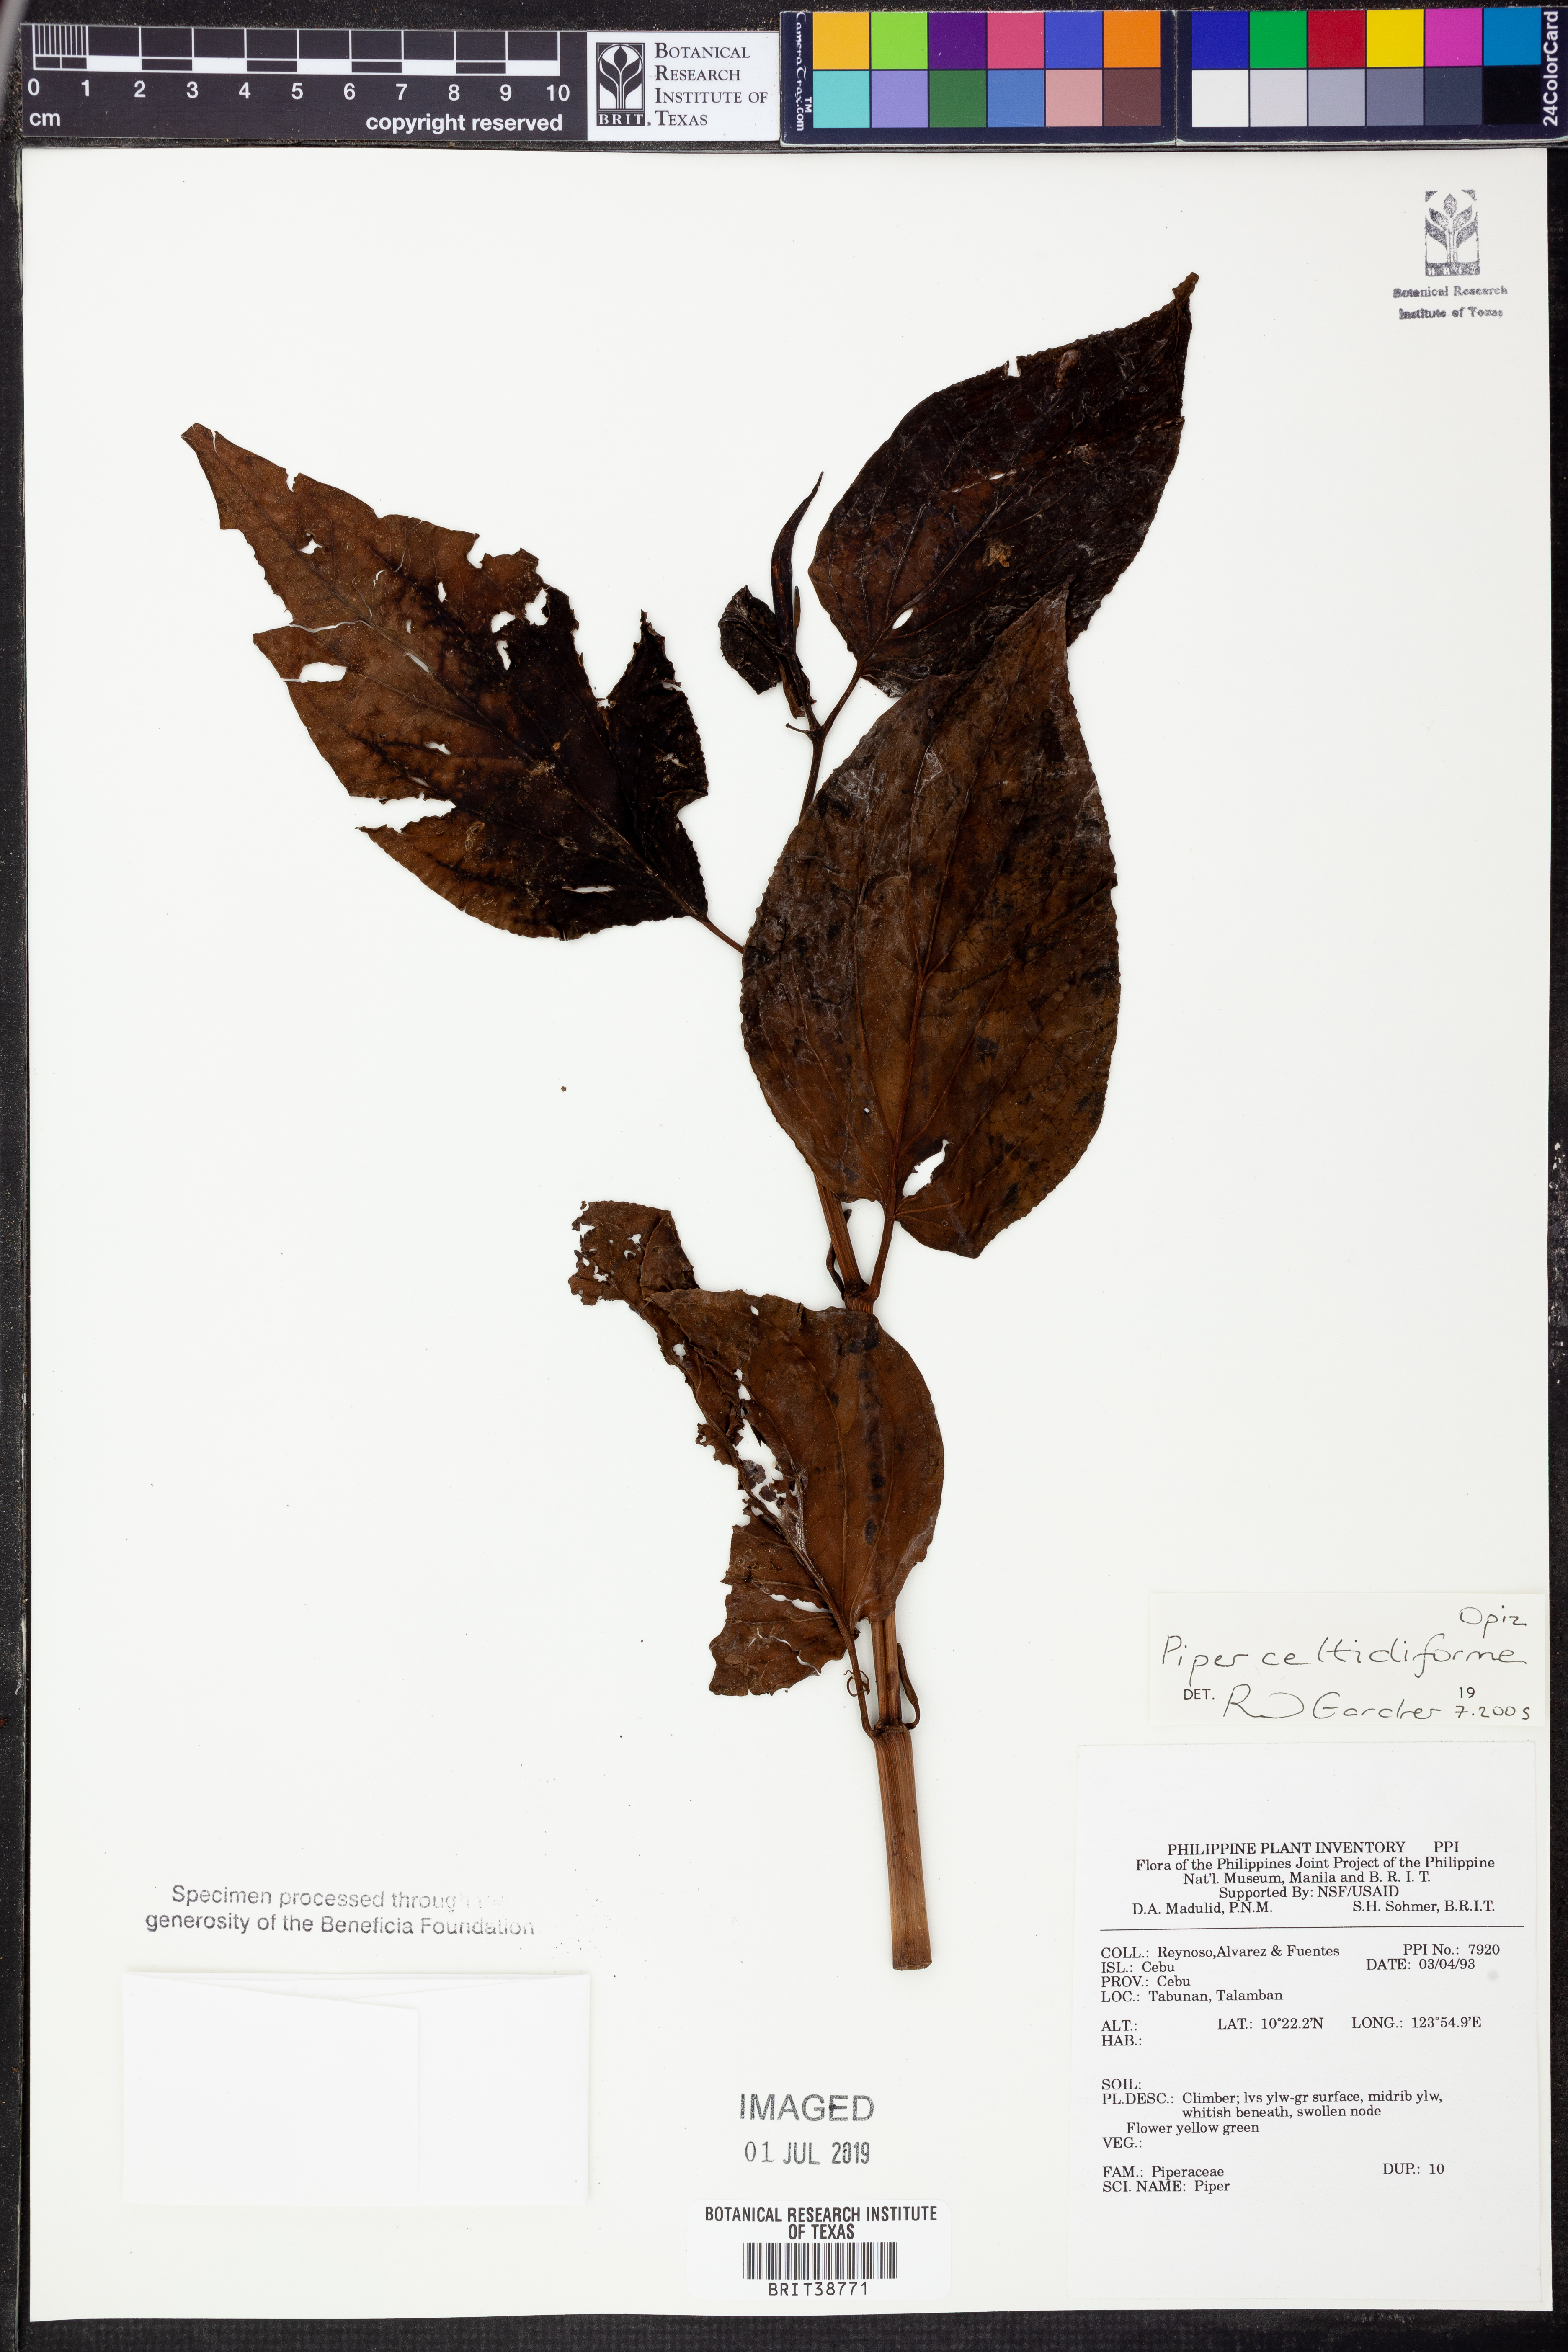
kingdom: Plantae
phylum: Tracheophyta
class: Magnoliopsida
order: Piperales
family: Piperaceae
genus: Piper
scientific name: Piper celtidiforme
